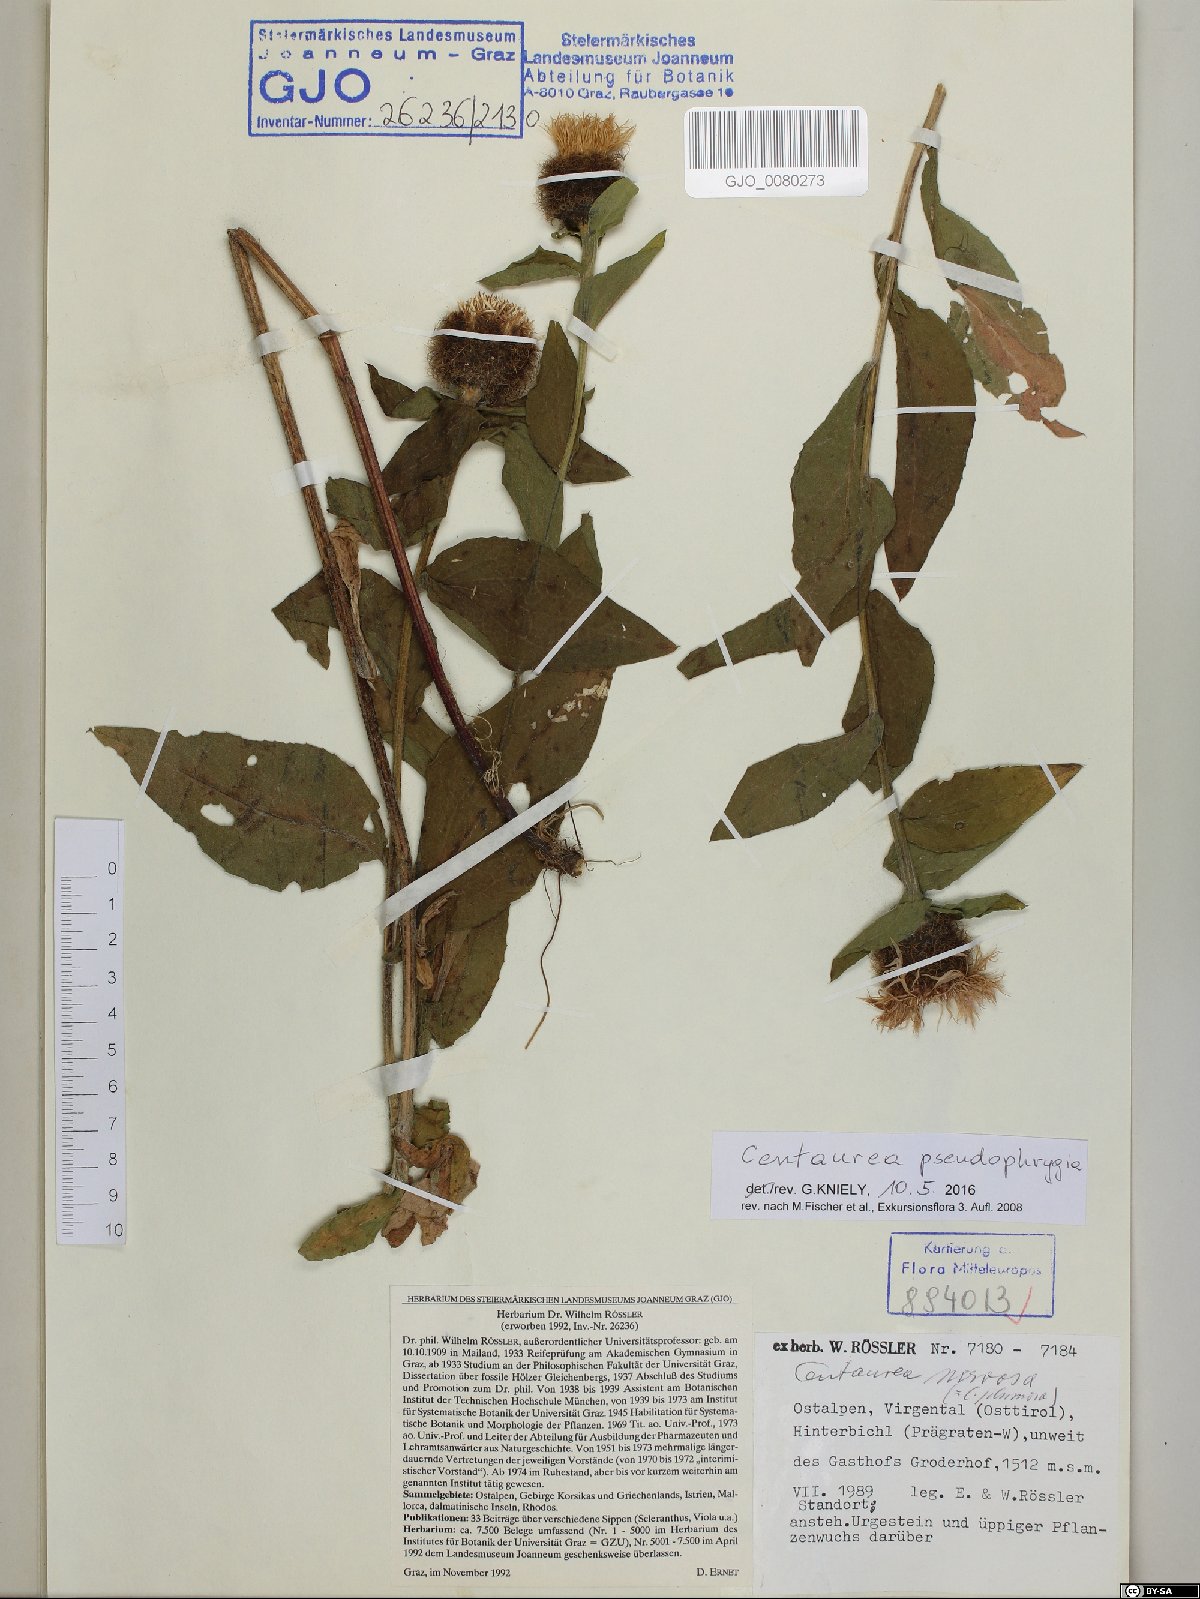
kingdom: Plantae
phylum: Tracheophyta
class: Magnoliopsida
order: Asterales
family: Asteraceae
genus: Centaurea
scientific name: Centaurea pseudophrygia
